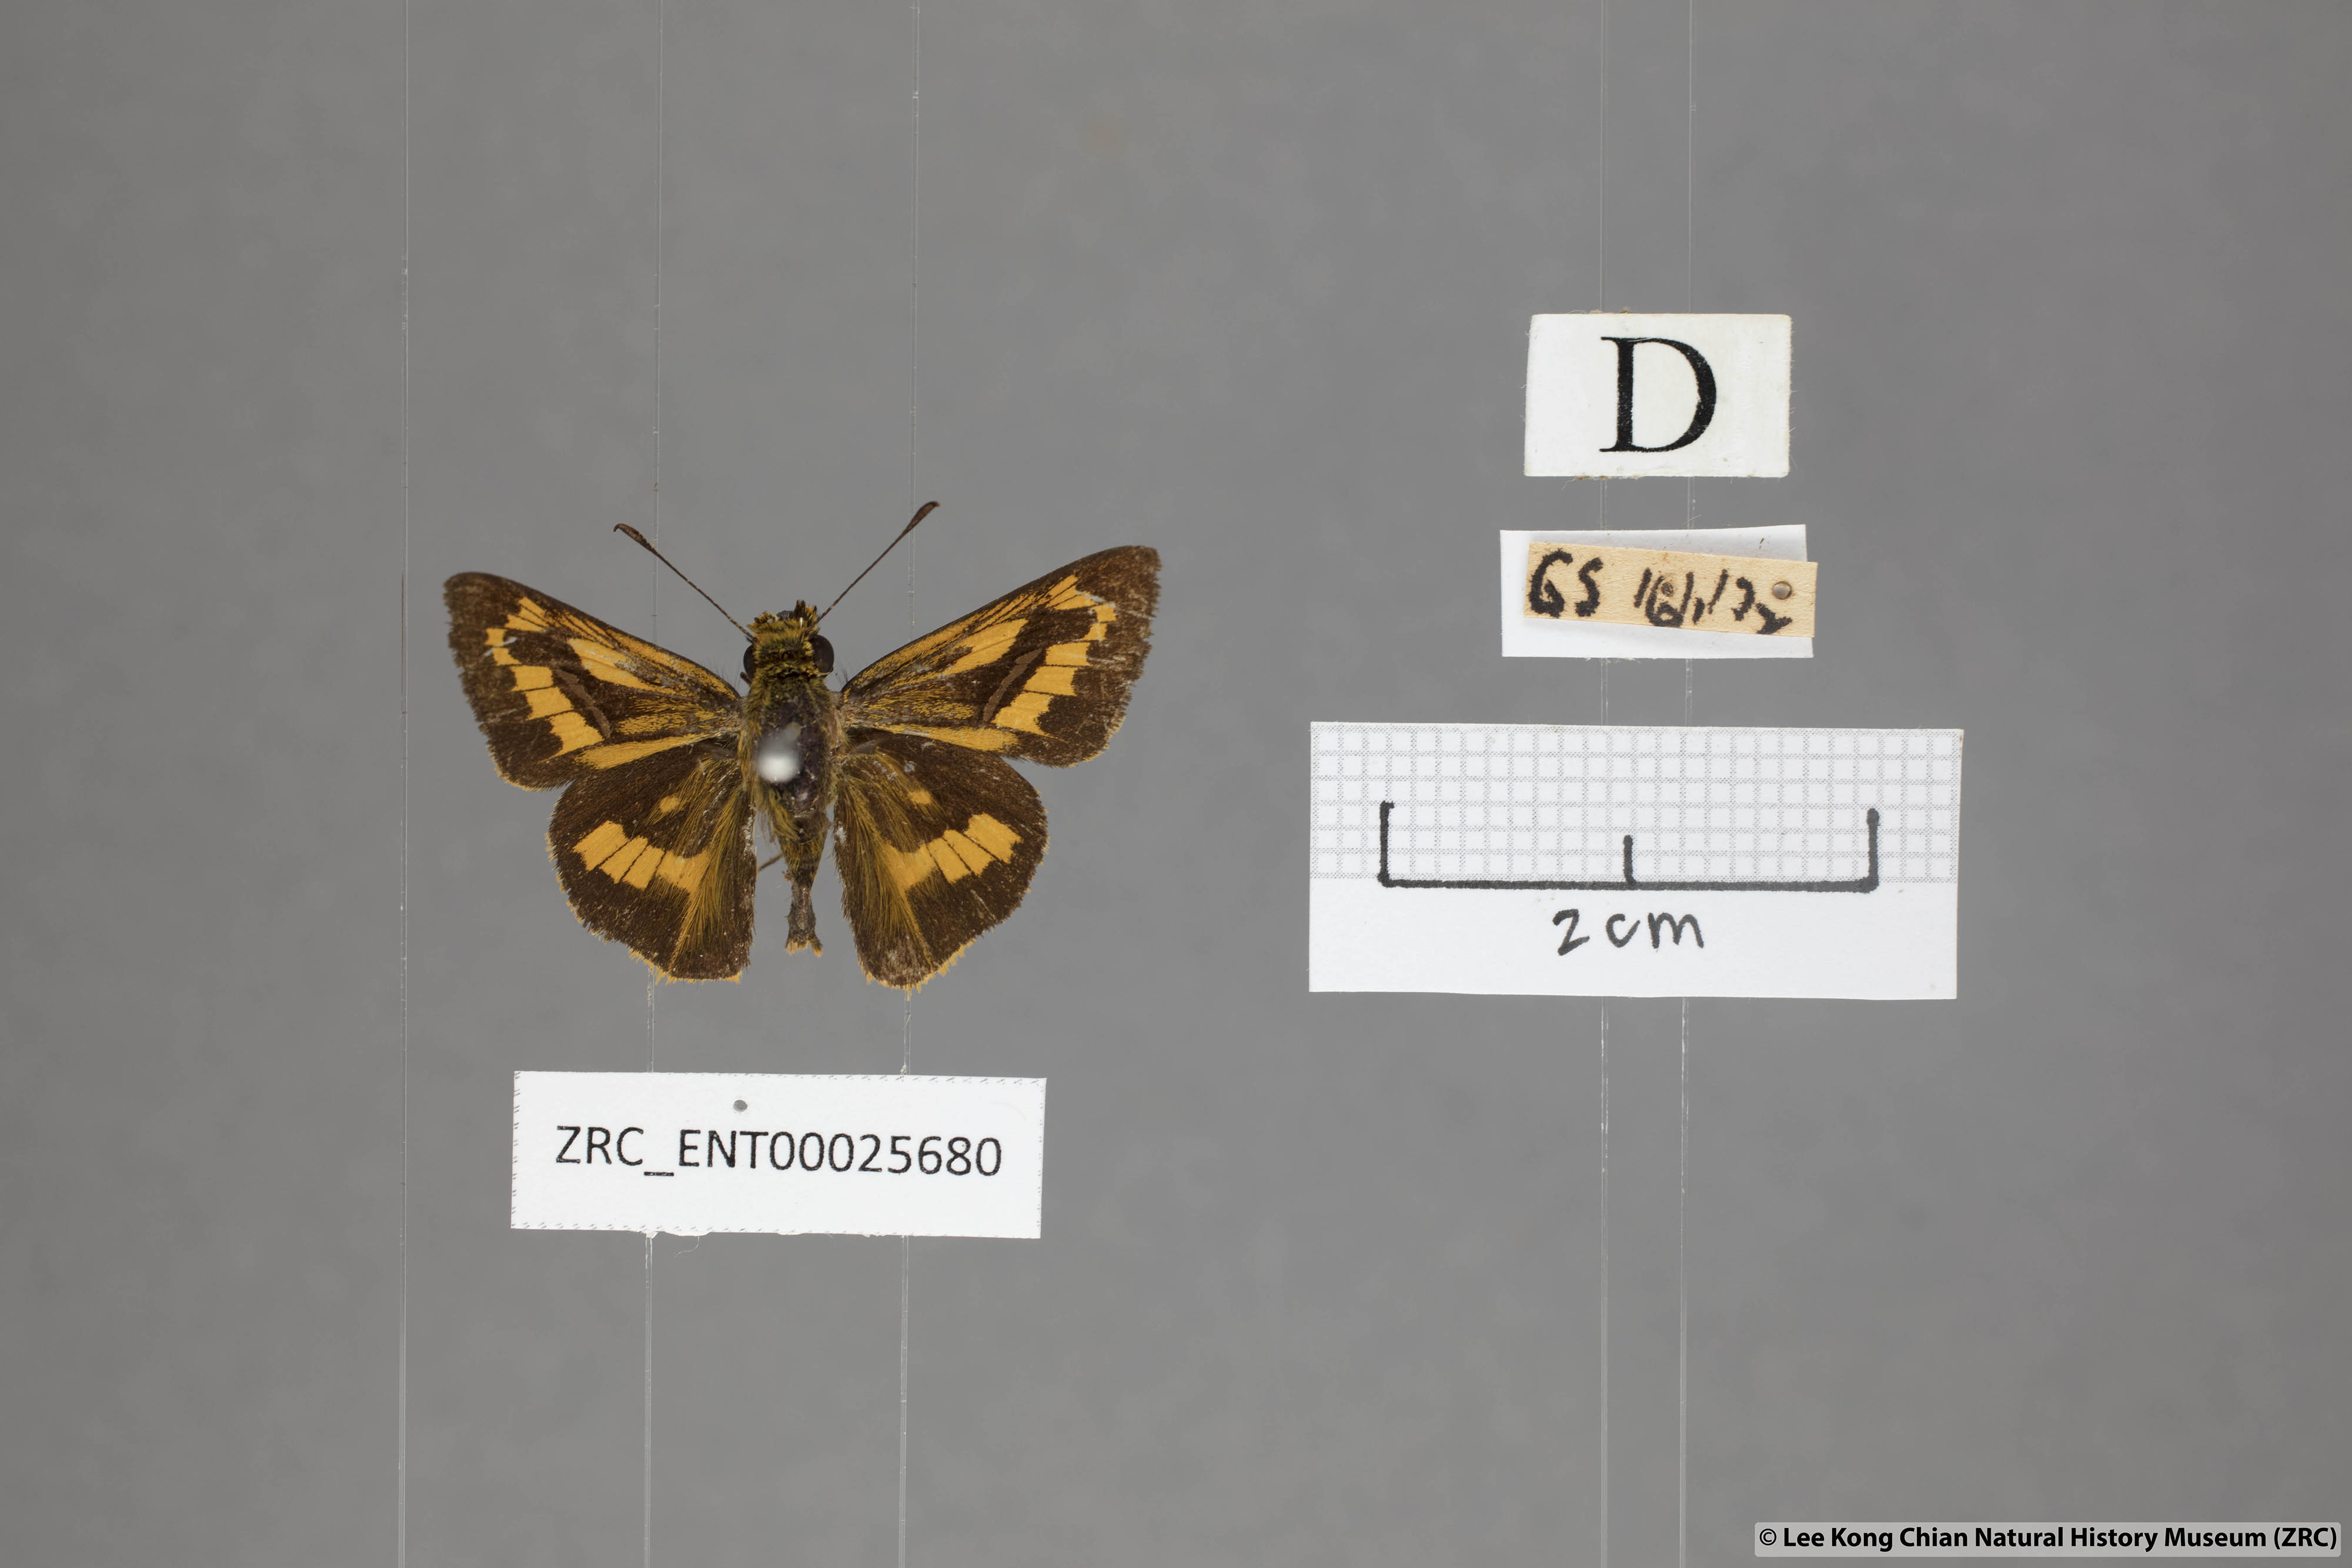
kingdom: Animalia
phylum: Arthropoda
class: Insecta
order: Lepidoptera
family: Hesperiidae
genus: Telicota
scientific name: Telicota ohara
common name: Dark palm dart
